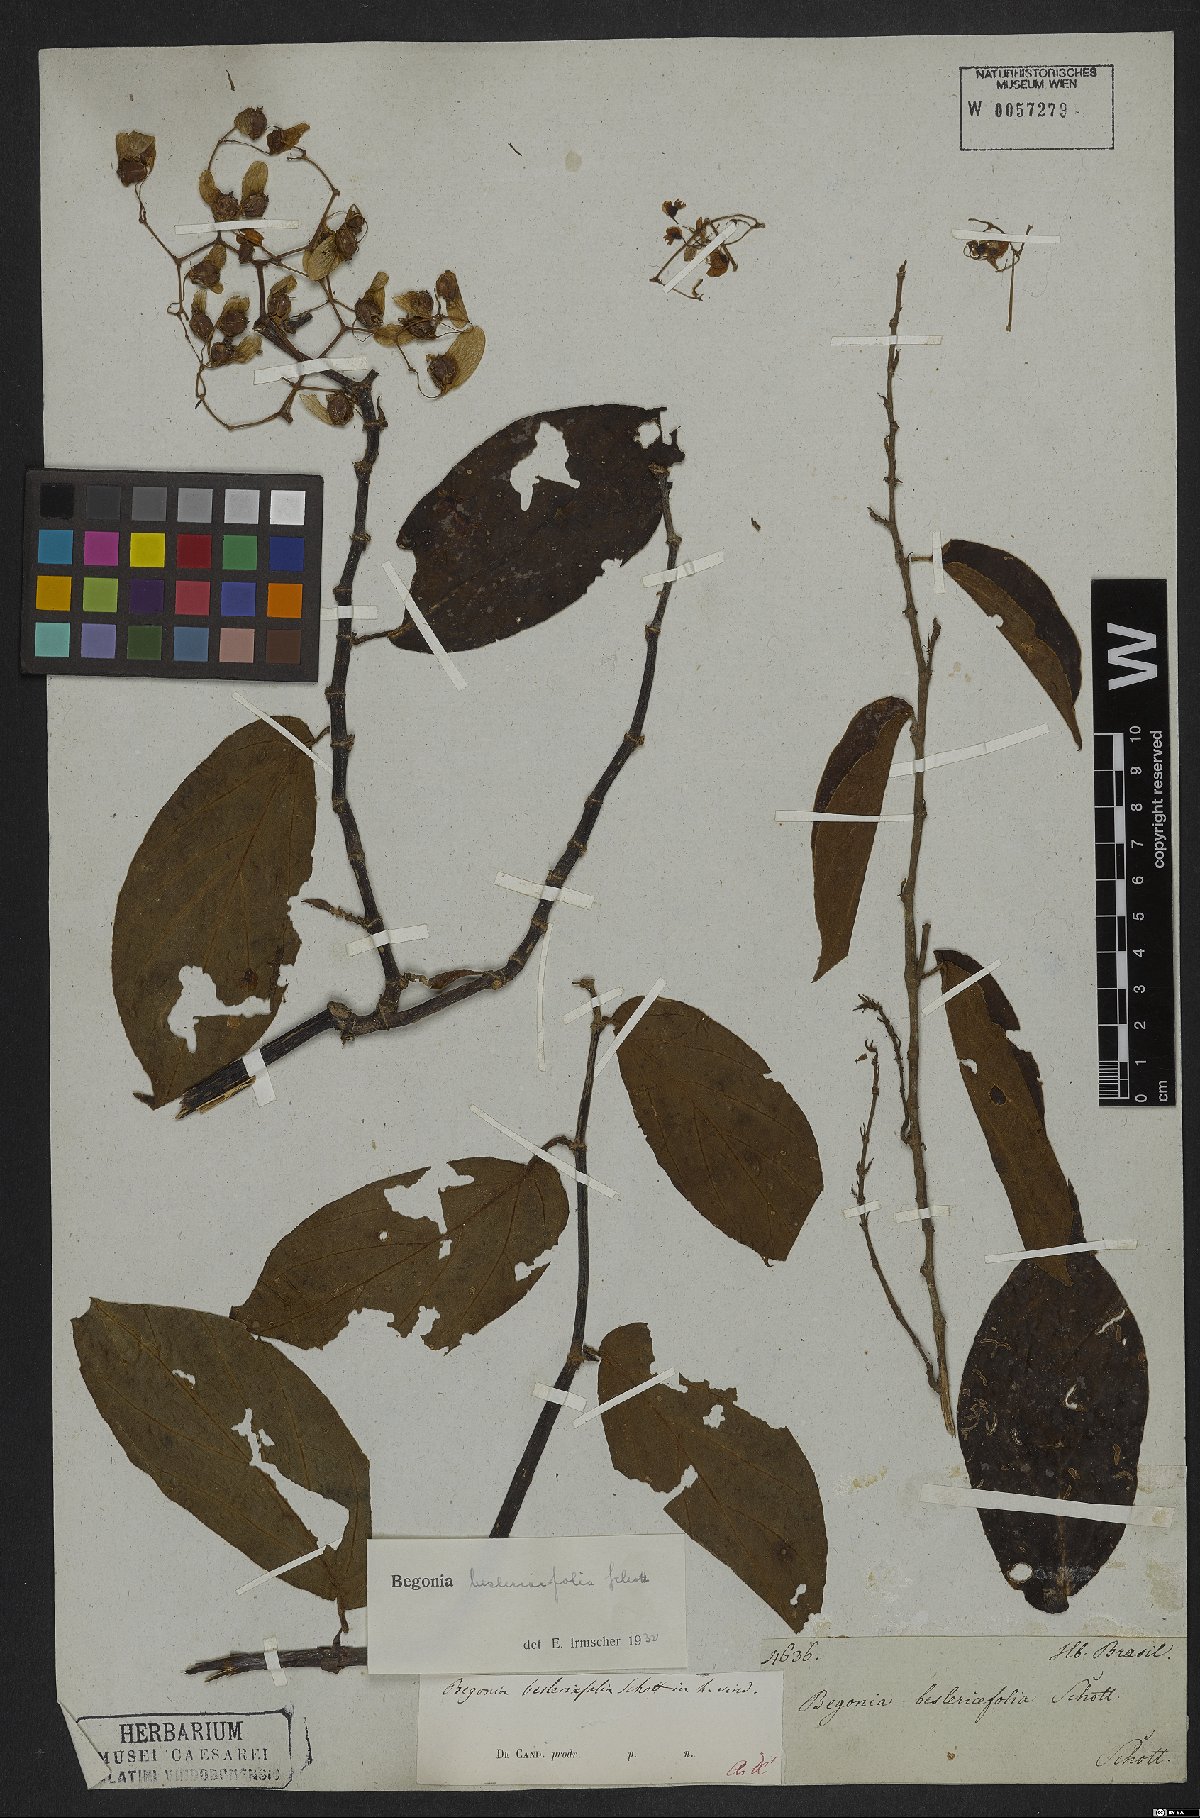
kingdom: Plantae
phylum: Tracheophyta
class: Magnoliopsida
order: Cucurbitales
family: Begoniaceae
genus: Begonia
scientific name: Begonia besleriifolia
